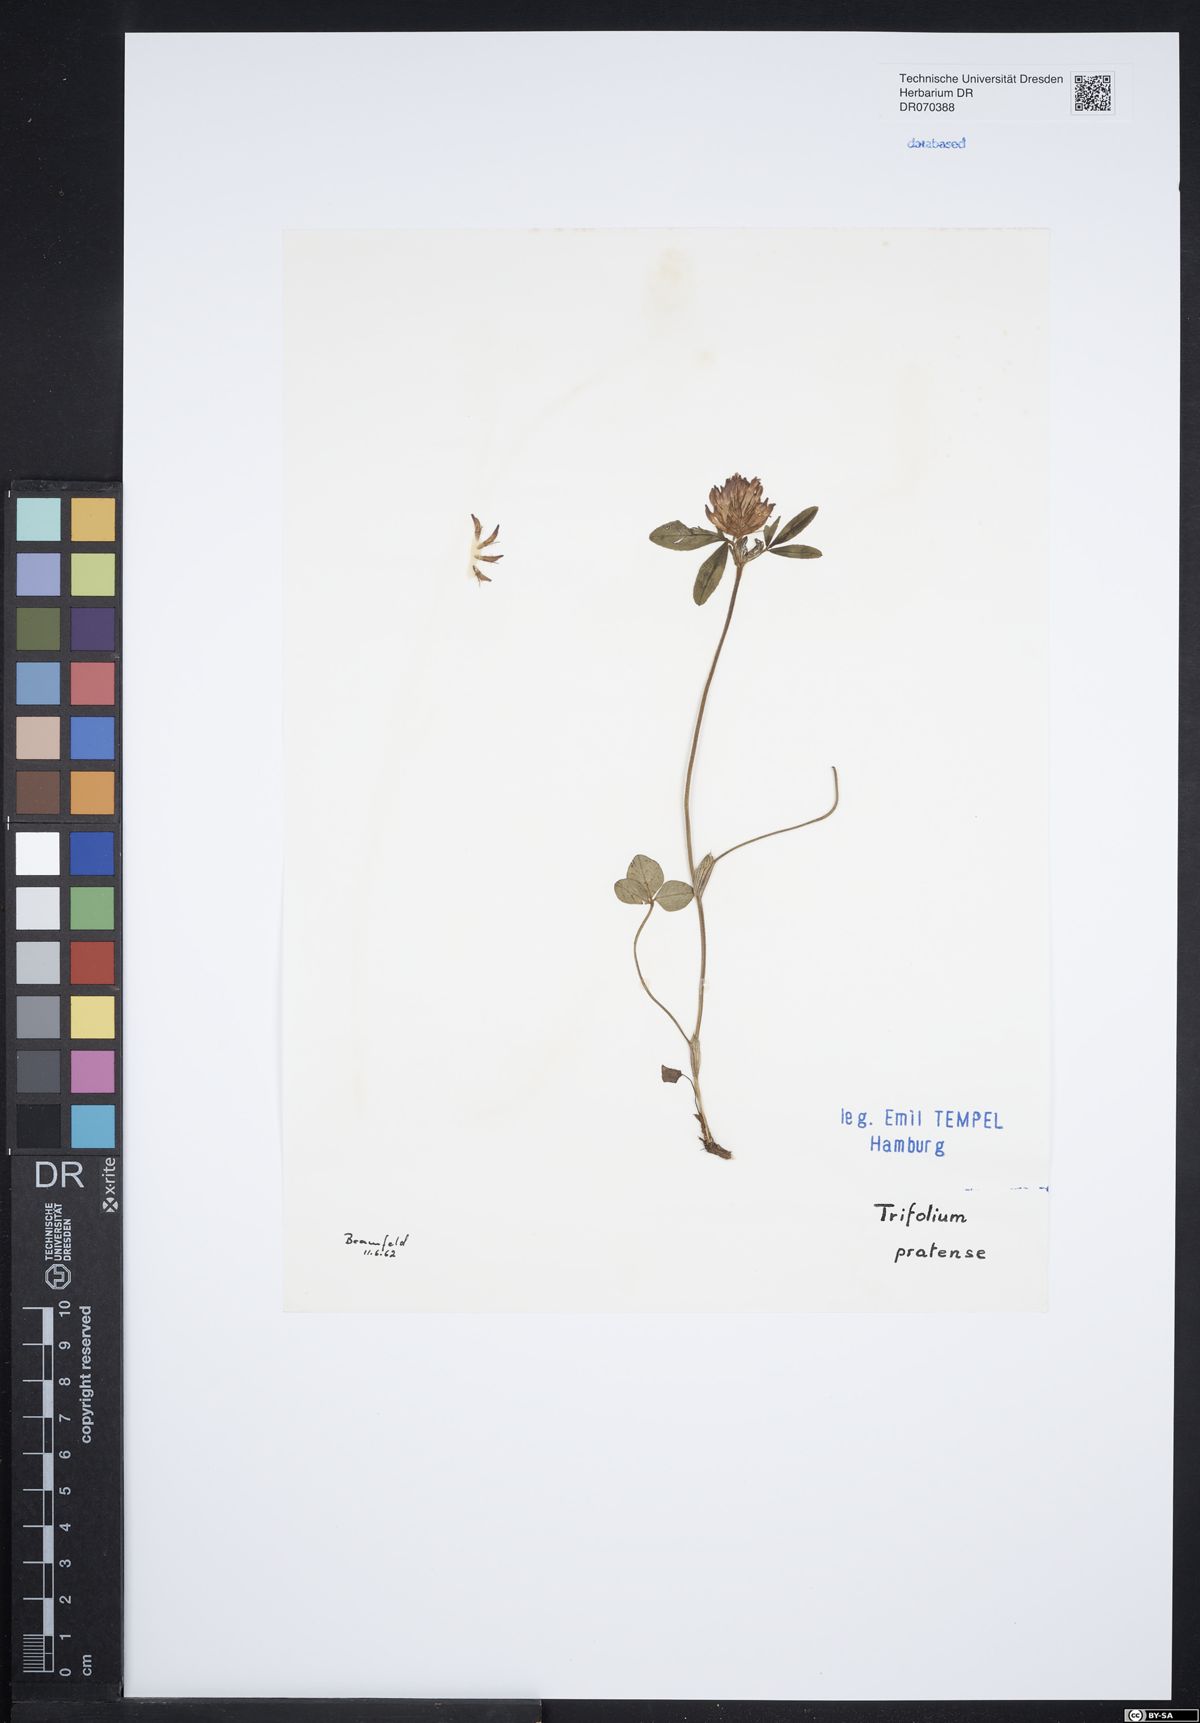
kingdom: Plantae
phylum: Tracheophyta
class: Magnoliopsida
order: Fabales
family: Fabaceae
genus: Trifolium
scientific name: Trifolium pratense
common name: Red clover
